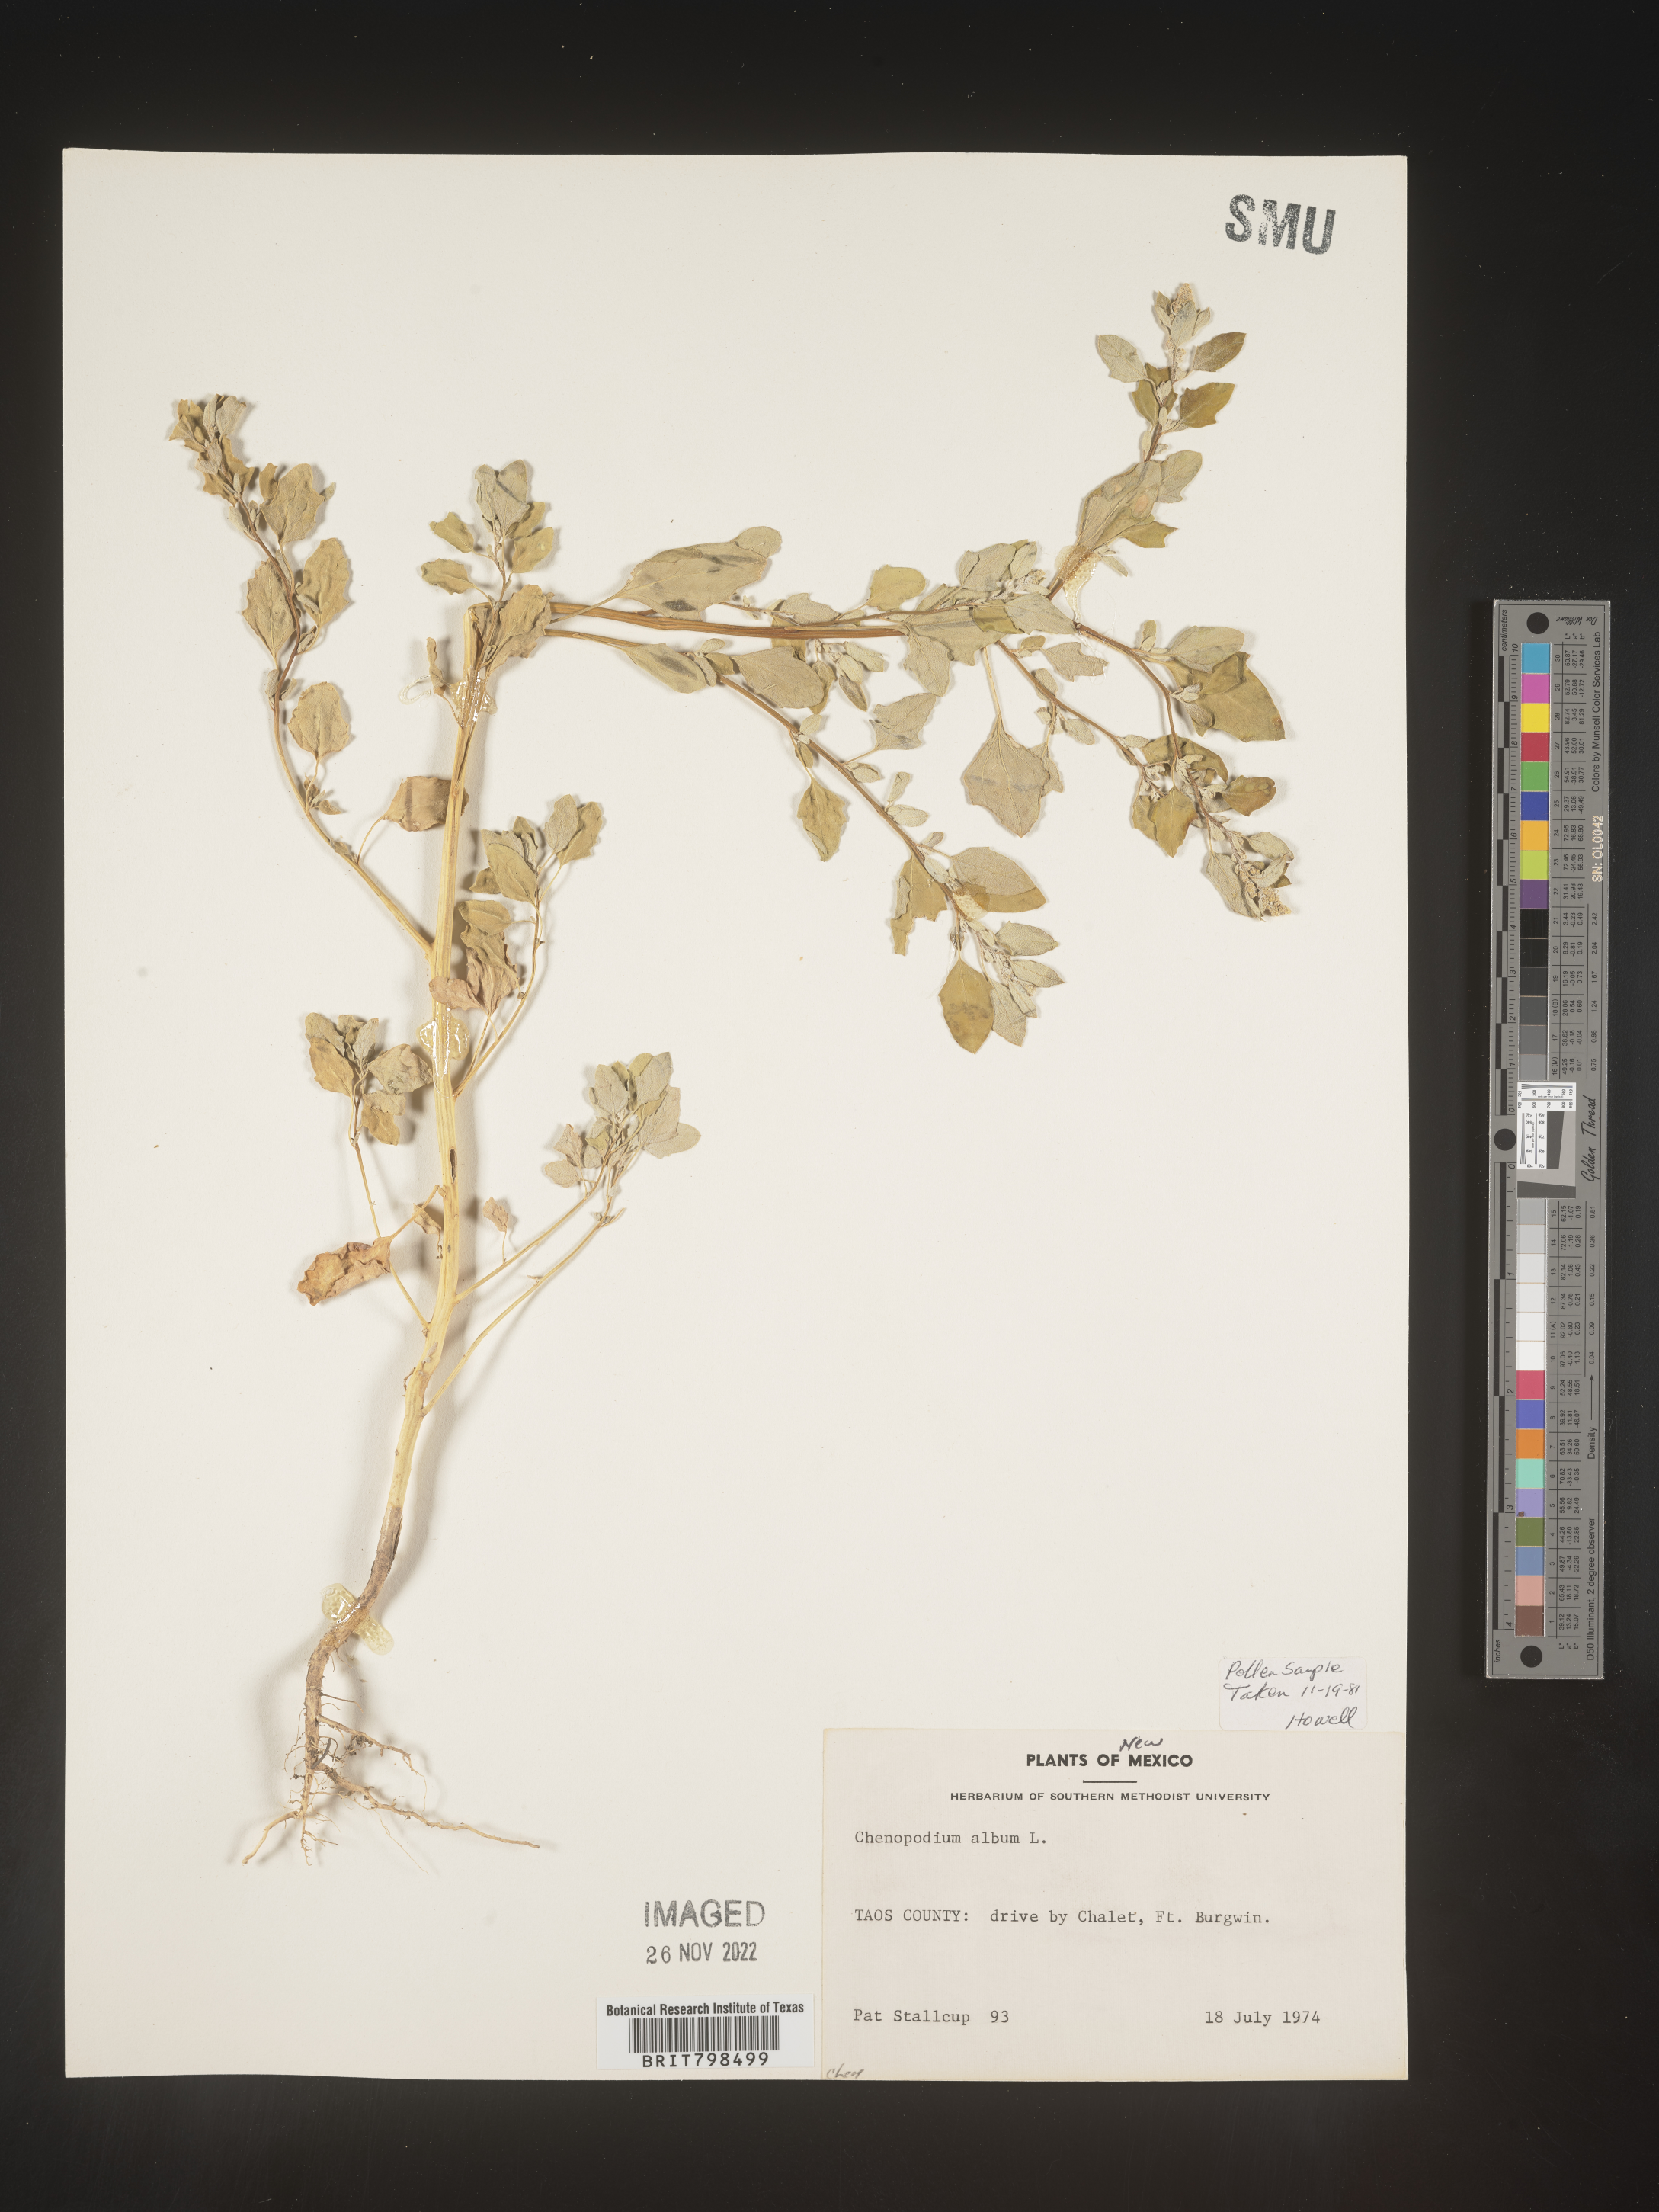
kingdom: Plantae
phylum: Tracheophyta
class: Magnoliopsida
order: Caryophyllales
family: Amaranthaceae
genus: Chenopodium
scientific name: Chenopodium album
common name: Fat-hen
